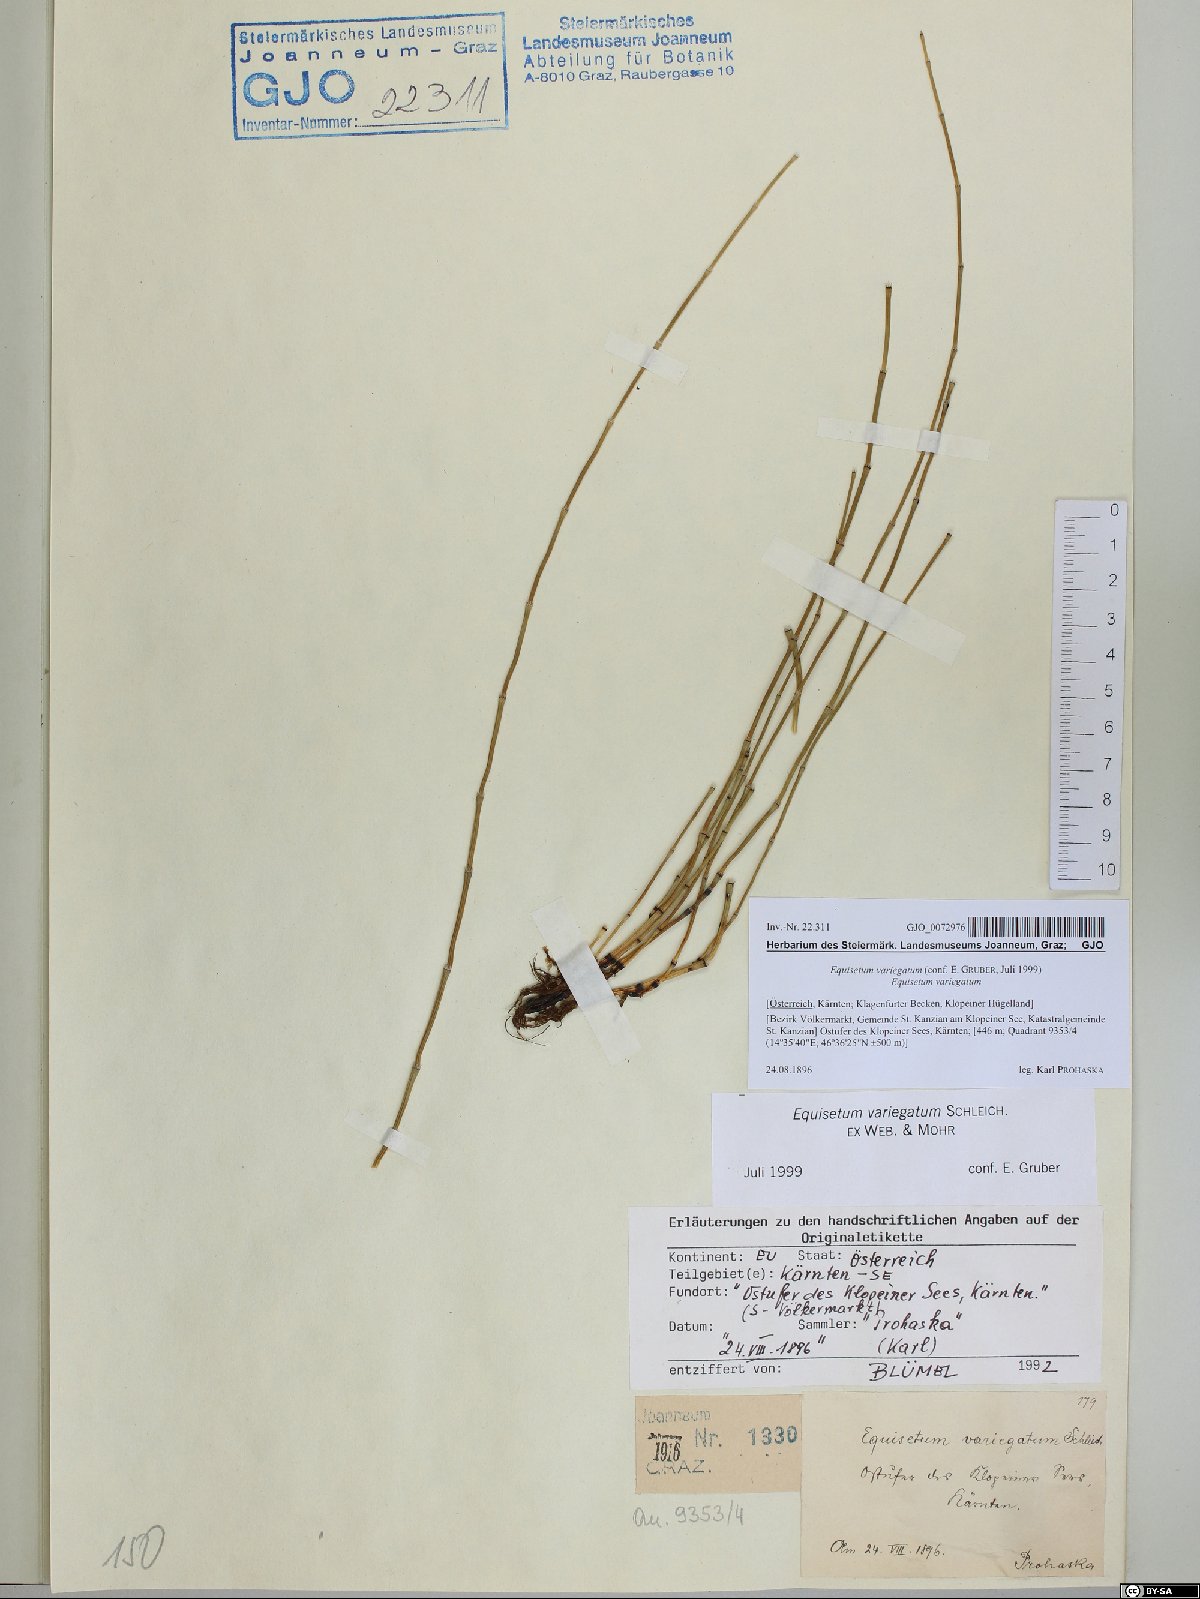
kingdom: Plantae
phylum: Tracheophyta
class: Polypodiopsida
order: Equisetales
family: Equisetaceae
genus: Equisetum
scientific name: Equisetum variegatum
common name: Variegated horsetail
